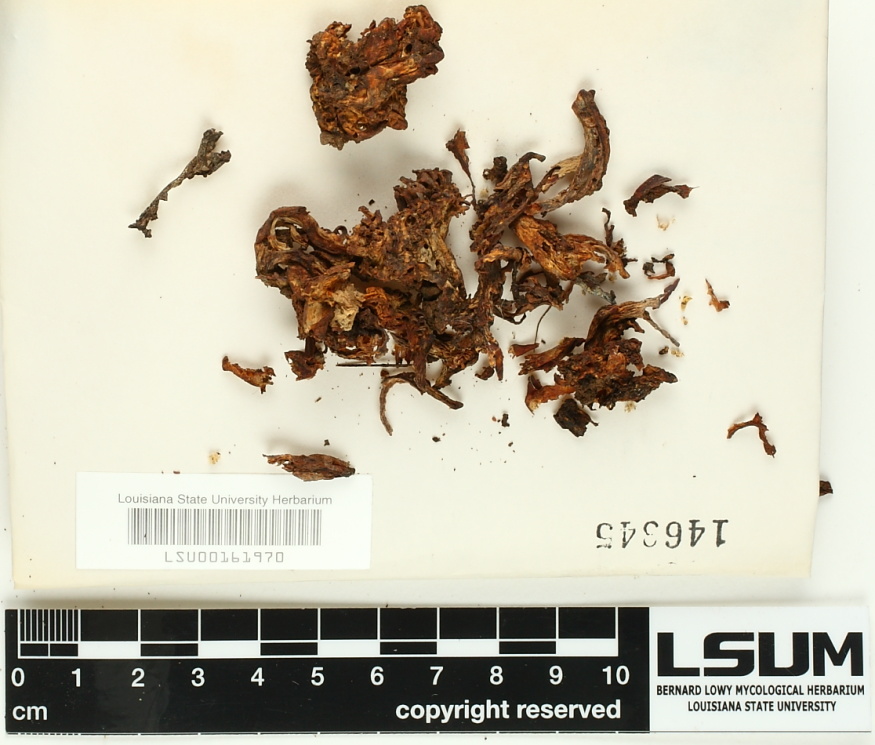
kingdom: Fungi
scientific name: Fungi
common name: Fungi
